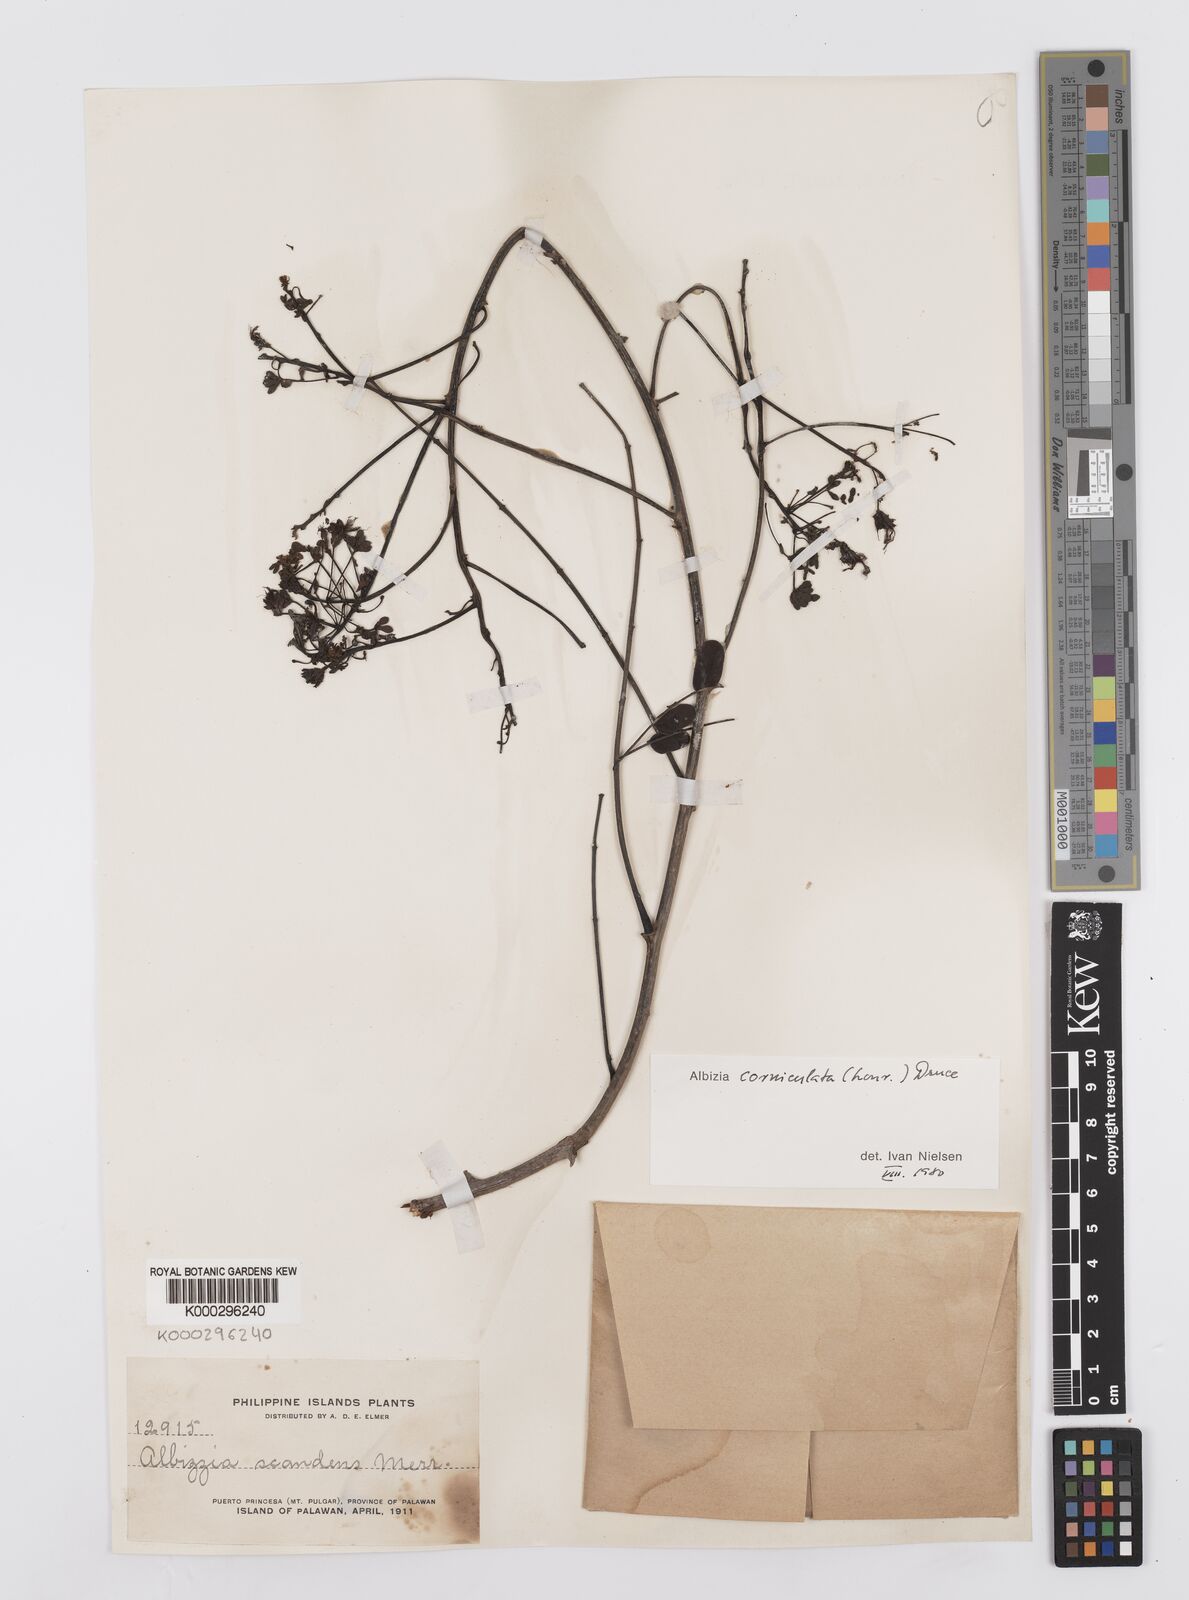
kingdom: Plantae
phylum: Tracheophyta
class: Magnoliopsida
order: Fabales
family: Fabaceae
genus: Albizia
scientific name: Albizia corniculata
